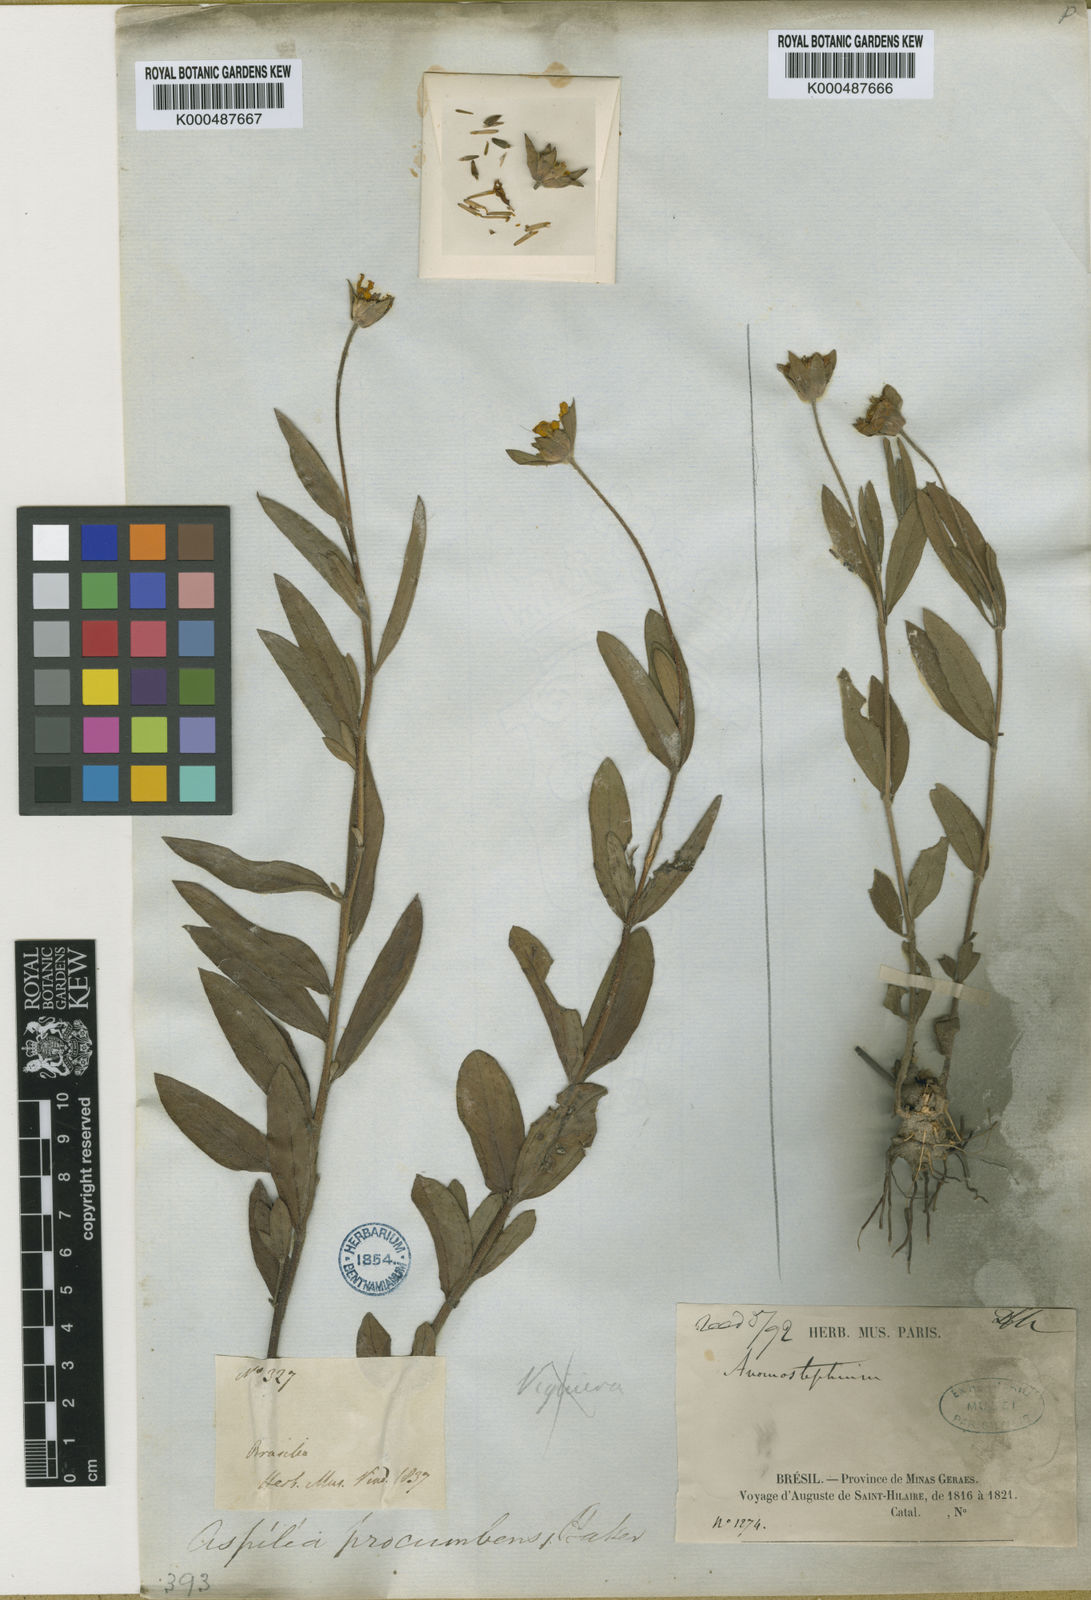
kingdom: Plantae
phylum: Tracheophyta
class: Magnoliopsida
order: Asterales
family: Asteraceae
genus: Wedelia
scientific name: Wedelia procumbens
